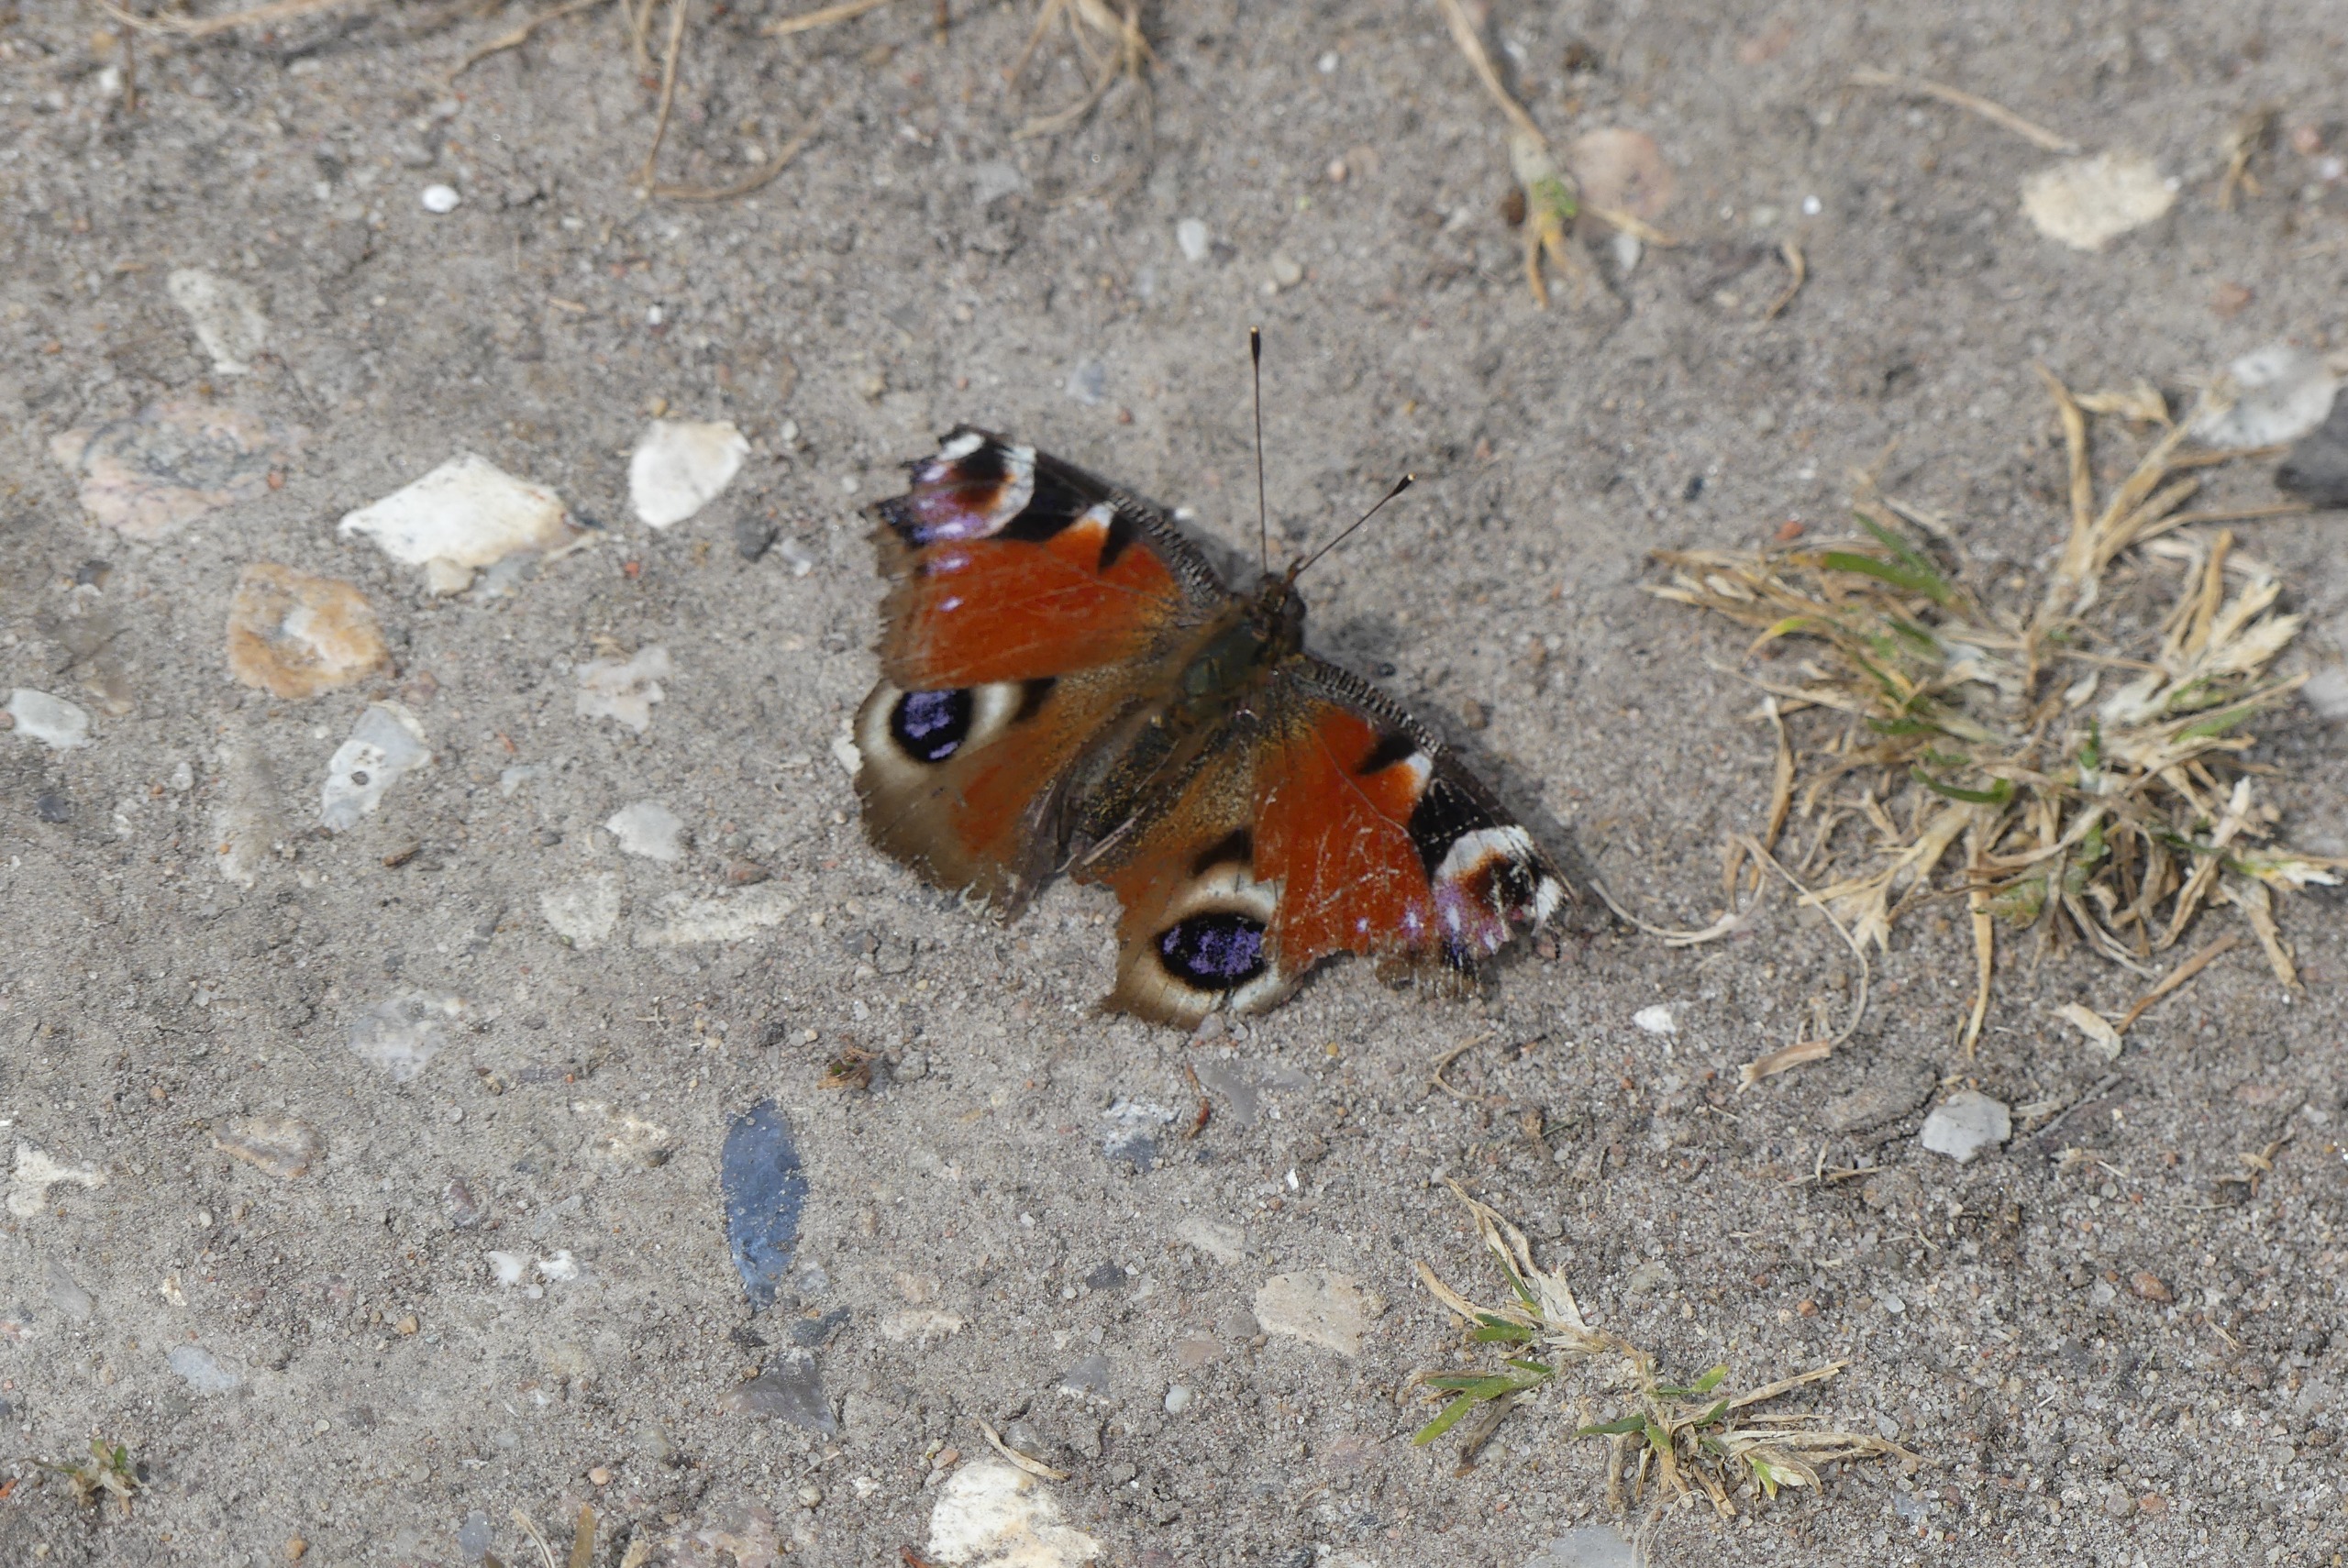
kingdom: Animalia
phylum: Arthropoda
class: Insecta
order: Lepidoptera
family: Nymphalidae
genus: Aglais
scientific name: Aglais io
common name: Dagpåfugleøje
